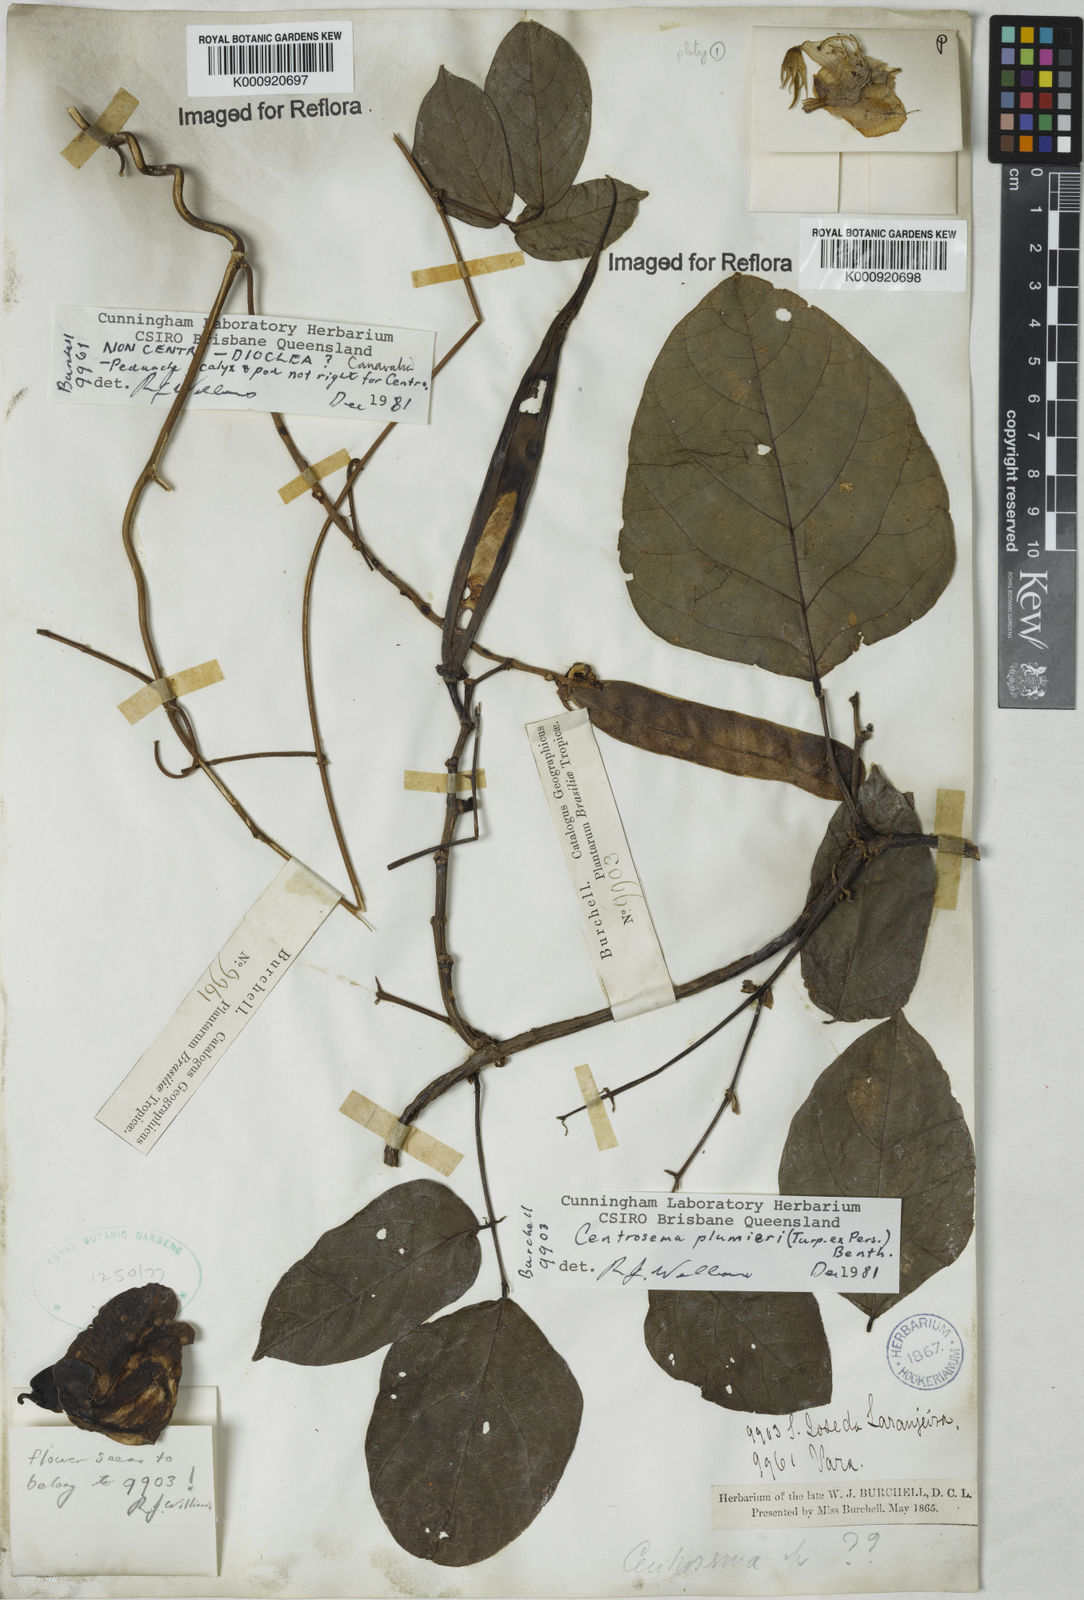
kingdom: Plantae
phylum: Tracheophyta
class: Magnoliopsida
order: Fabales
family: Fabaceae
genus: Centrosema
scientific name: Centrosema plumieri
